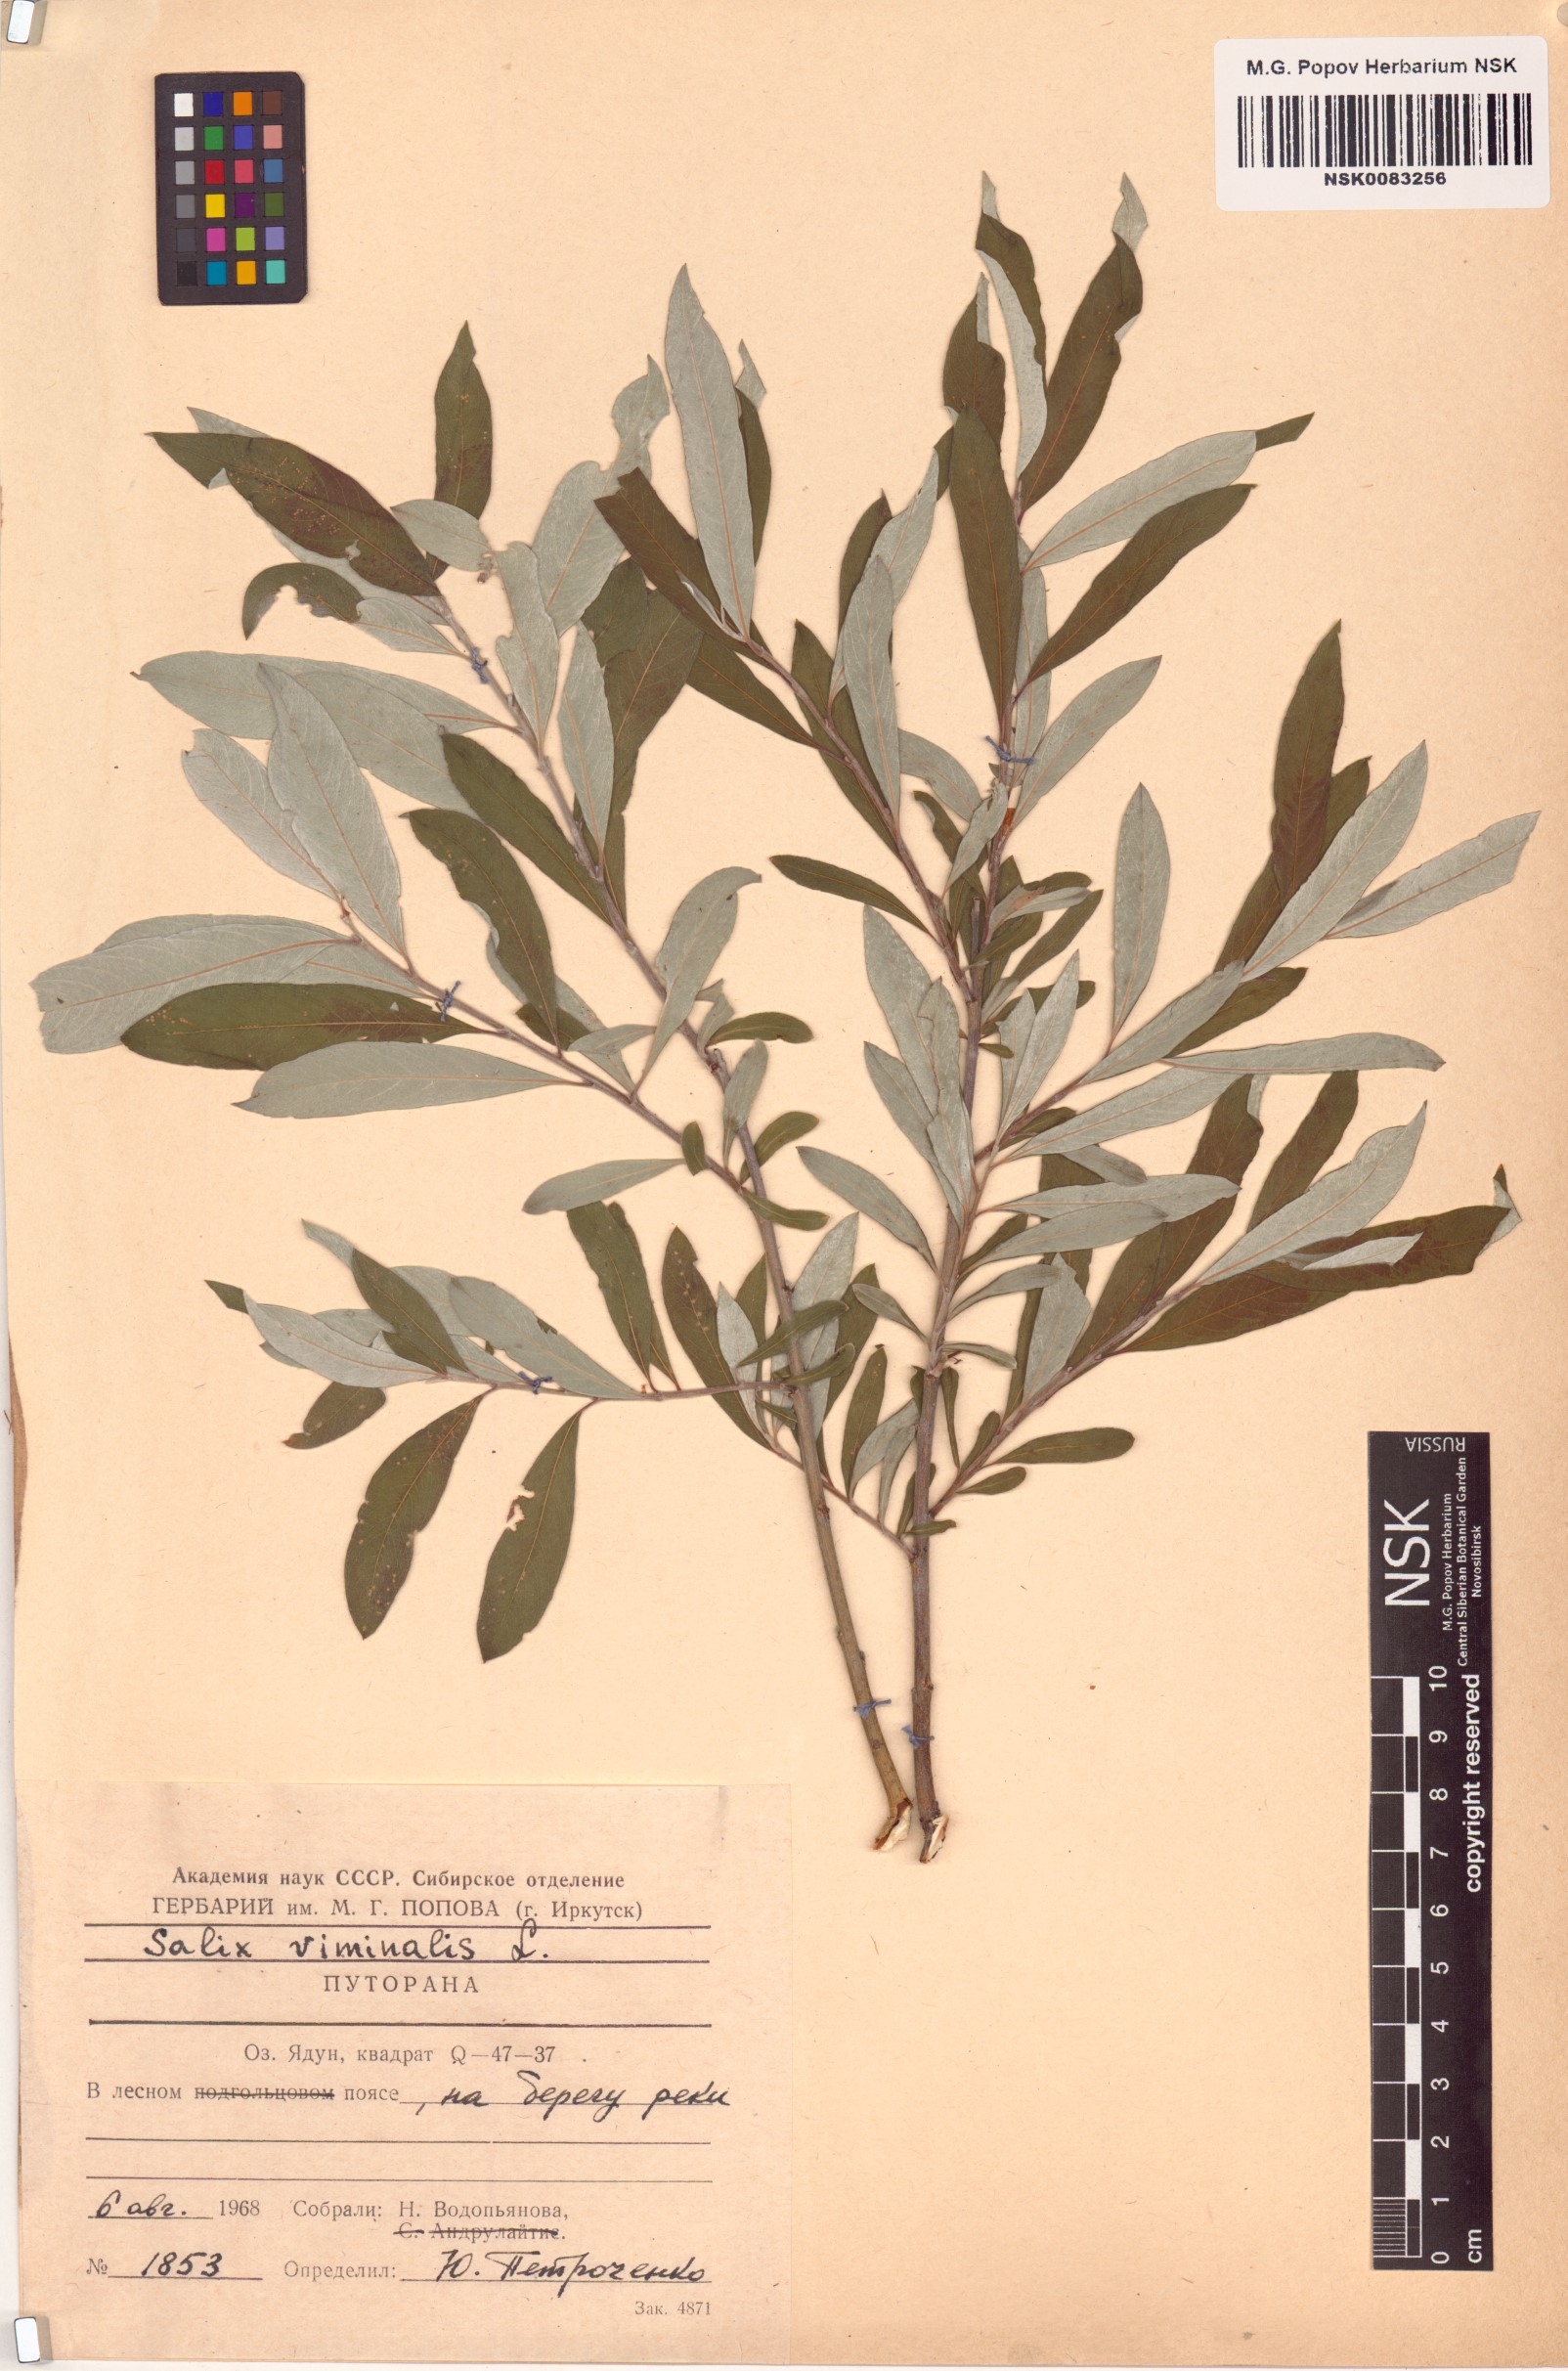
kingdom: Plantae
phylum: Tracheophyta
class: Magnoliopsida
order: Malpighiales
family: Salicaceae
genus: Salix
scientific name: Salix viminalis
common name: Osier
